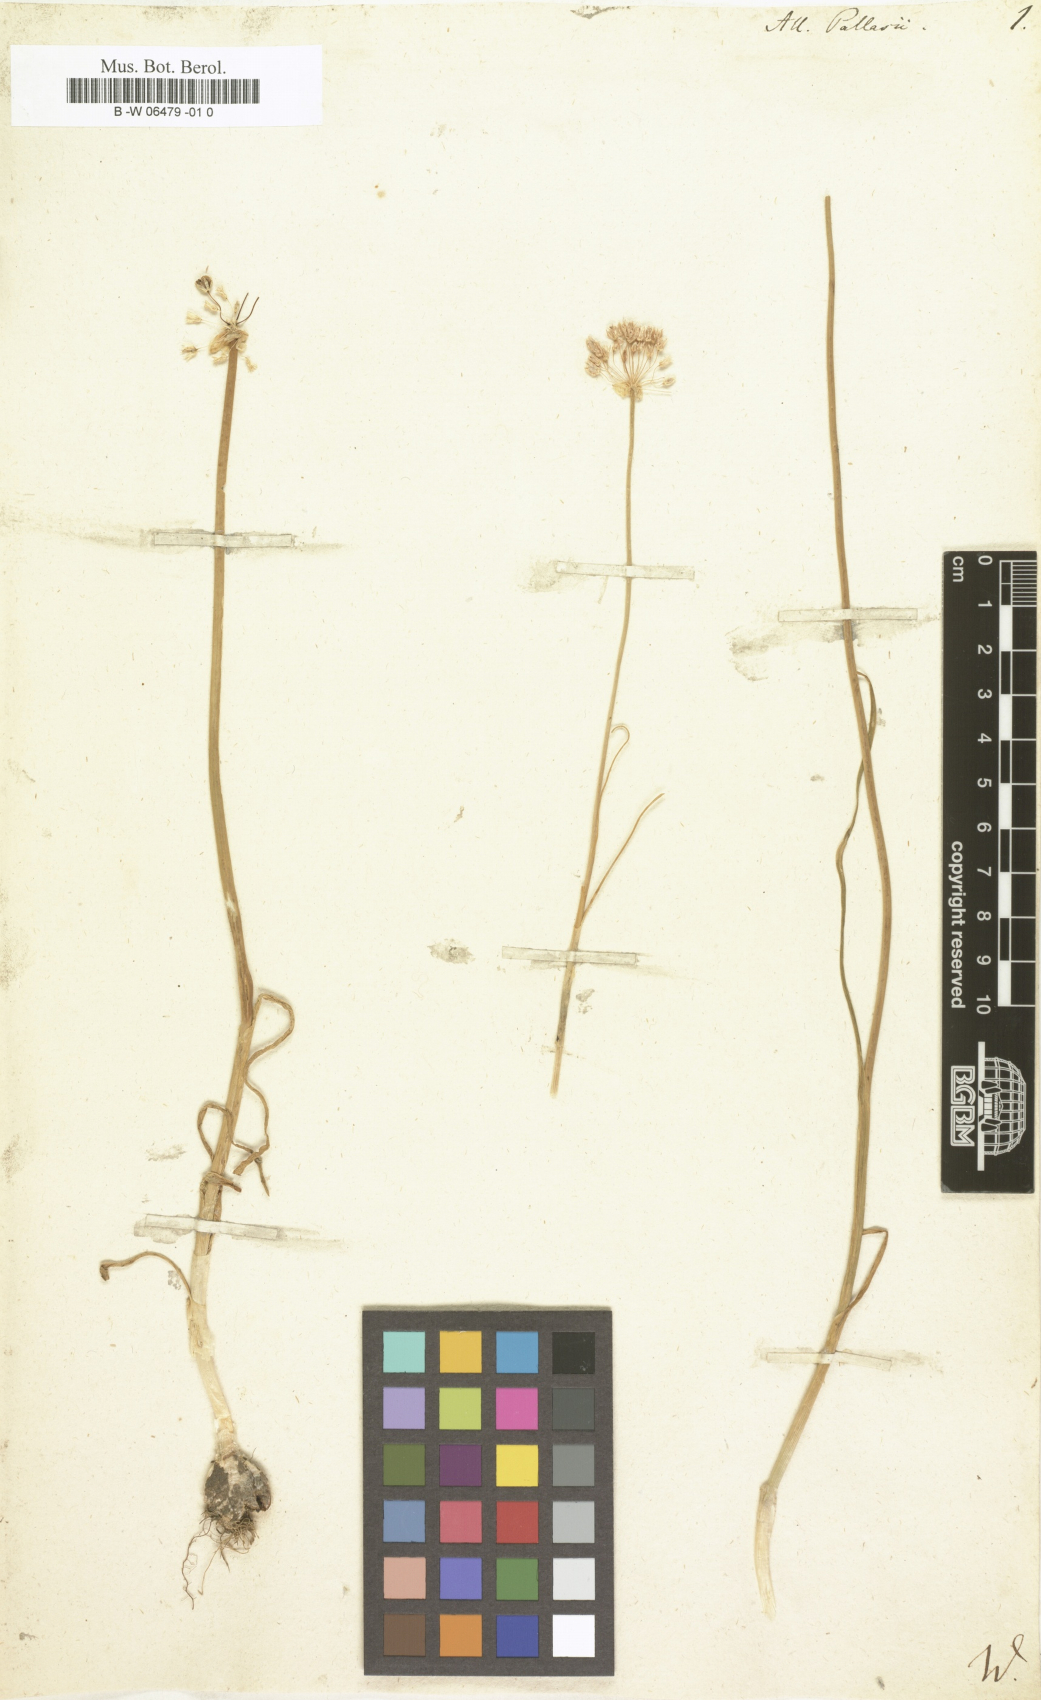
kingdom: Plantae
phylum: Tracheophyta
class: Liliopsida
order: Asparagales
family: Amaryllidaceae
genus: Allium
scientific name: Allium pallasii
